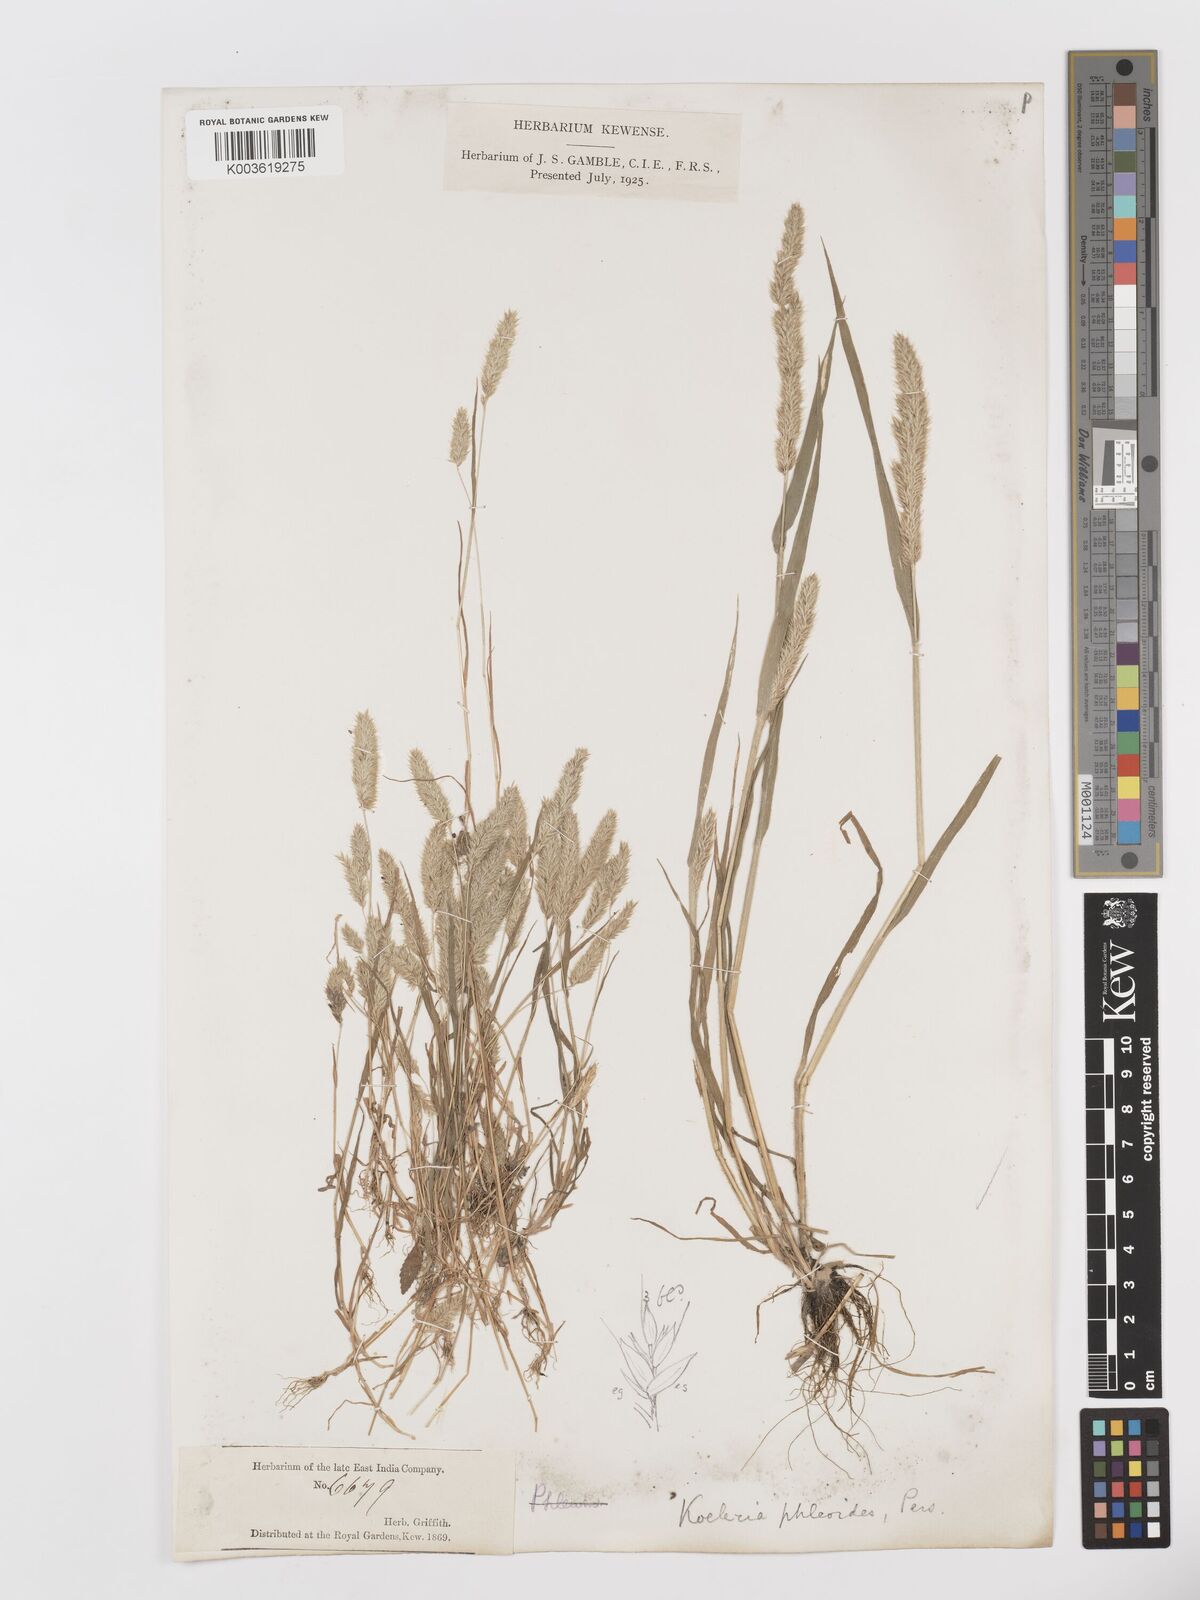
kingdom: Plantae
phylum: Tracheophyta
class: Liliopsida
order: Poales
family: Poaceae
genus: Rostraria
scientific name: Rostraria cristata
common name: Mediterranean hair-grass
